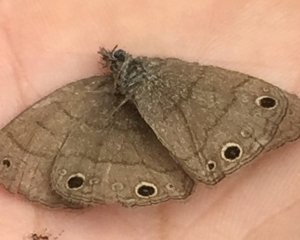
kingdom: Animalia
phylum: Arthropoda
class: Insecta
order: Lepidoptera
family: Nymphalidae
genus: Hermeuptychia
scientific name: Hermeuptychia hermes
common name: Carolina Satyr
